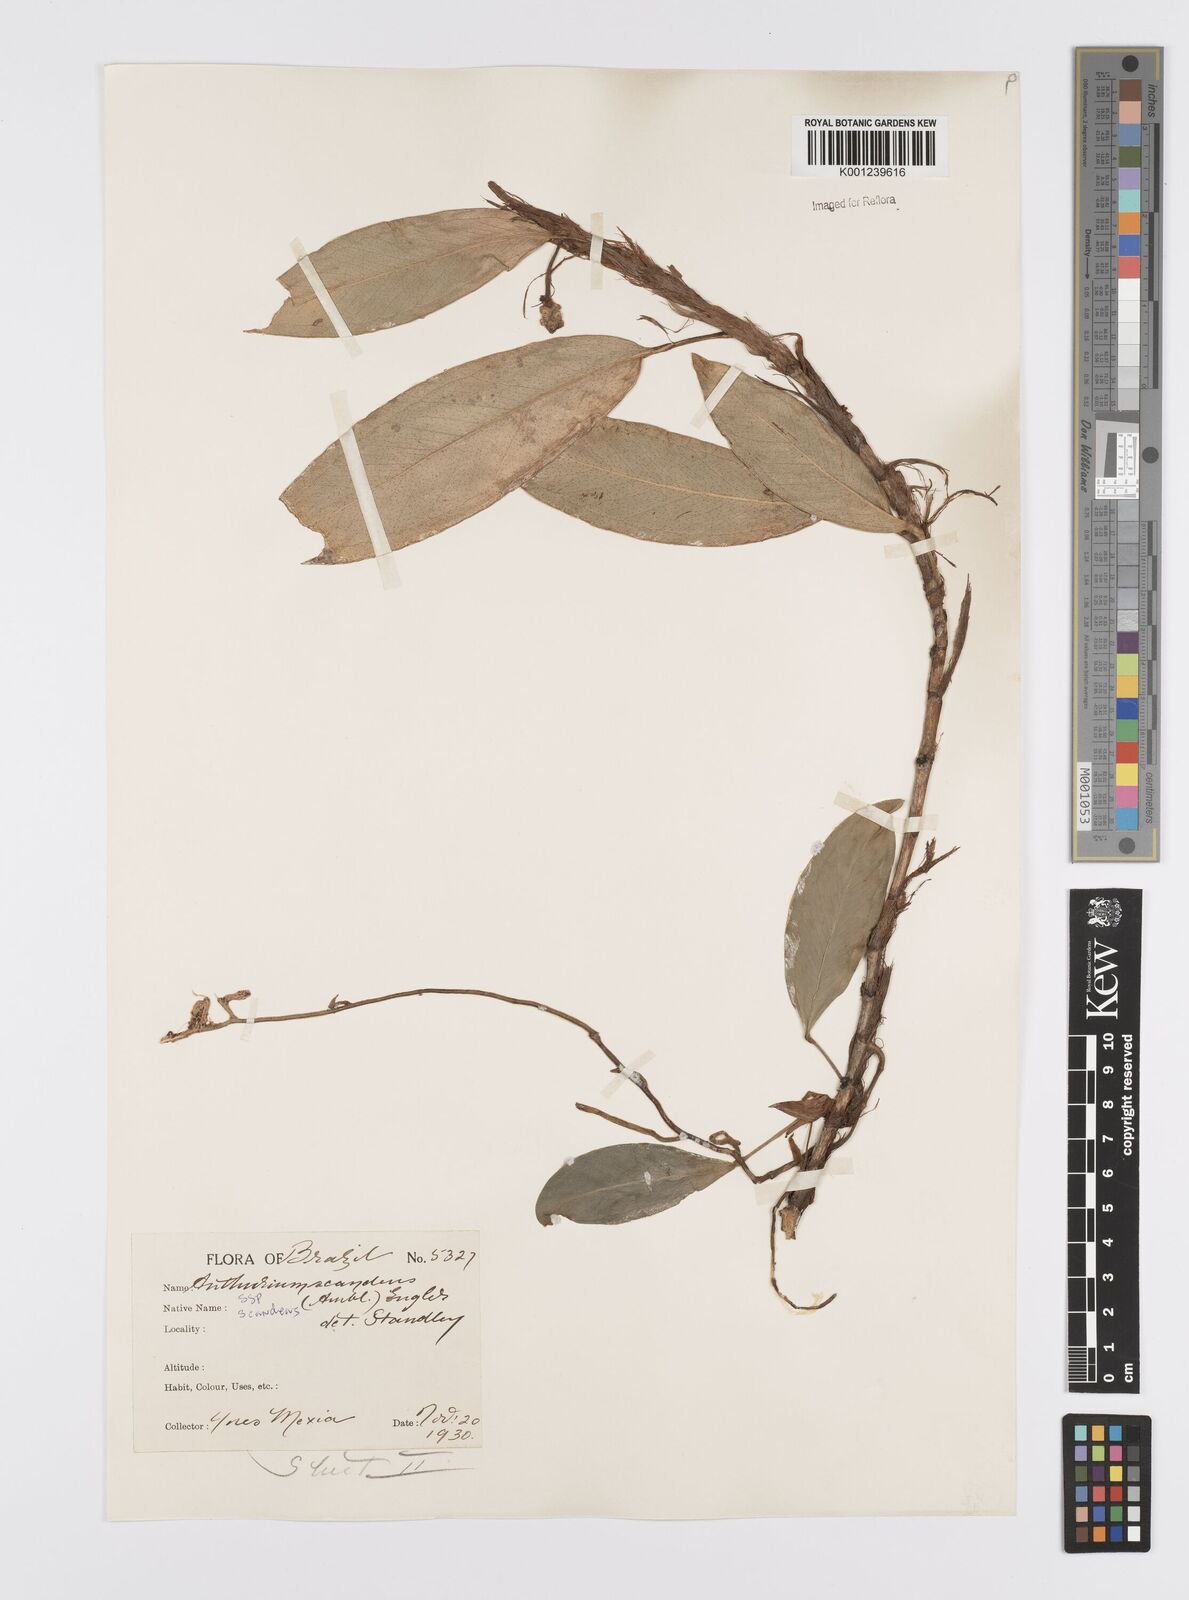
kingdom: Plantae
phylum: Tracheophyta
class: Liliopsida
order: Alismatales
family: Araceae
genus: Anthurium
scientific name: Anthurium scandens
